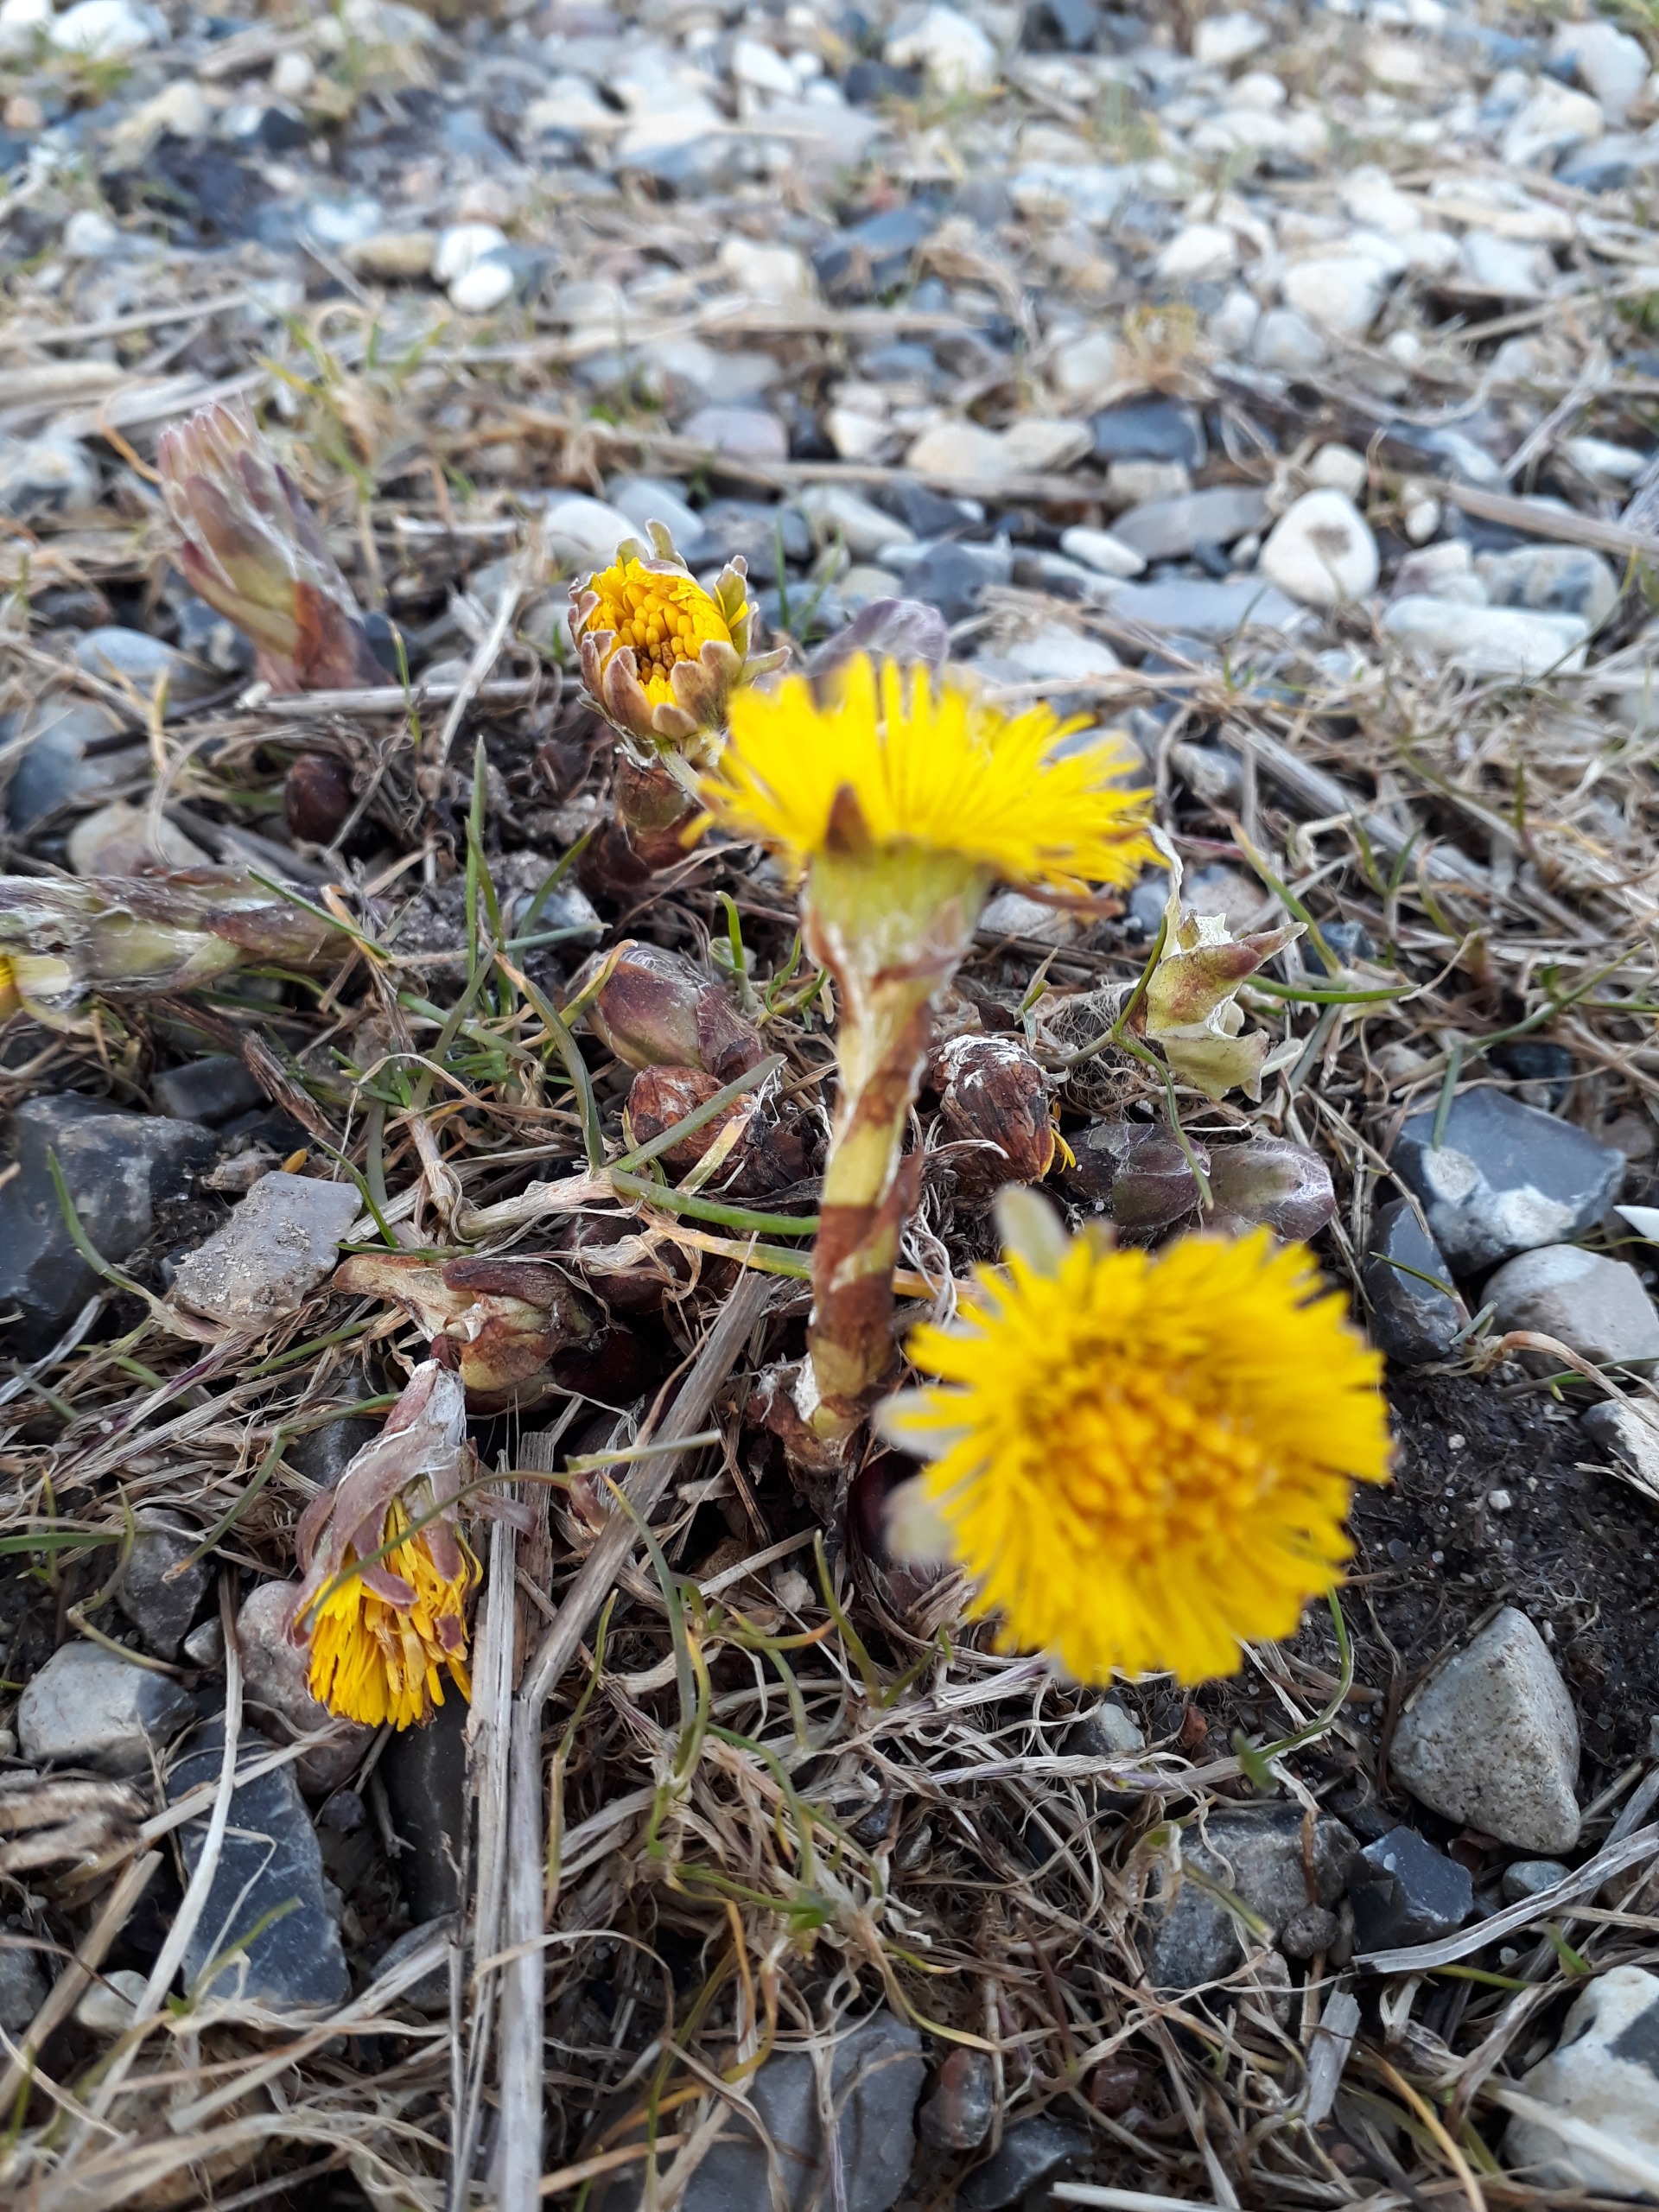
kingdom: Plantae
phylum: Tracheophyta
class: Magnoliopsida
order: Asterales
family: Asteraceae
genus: Tussilago
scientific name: Tussilago farfara
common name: Følfod
